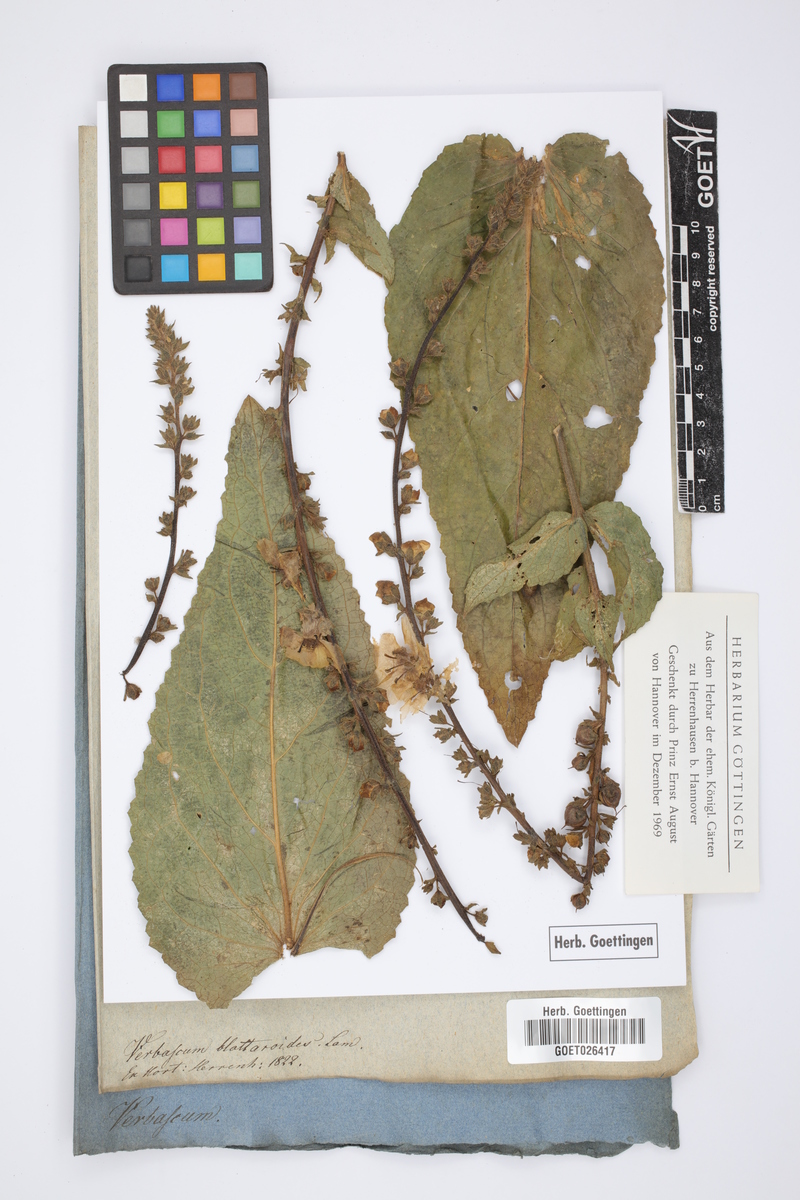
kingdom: Plantae
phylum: Tracheophyta
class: Magnoliopsida
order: Lamiales
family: Scrophulariaceae
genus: Verbascum
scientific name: Verbascum virgatum
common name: Twiggy mullein
